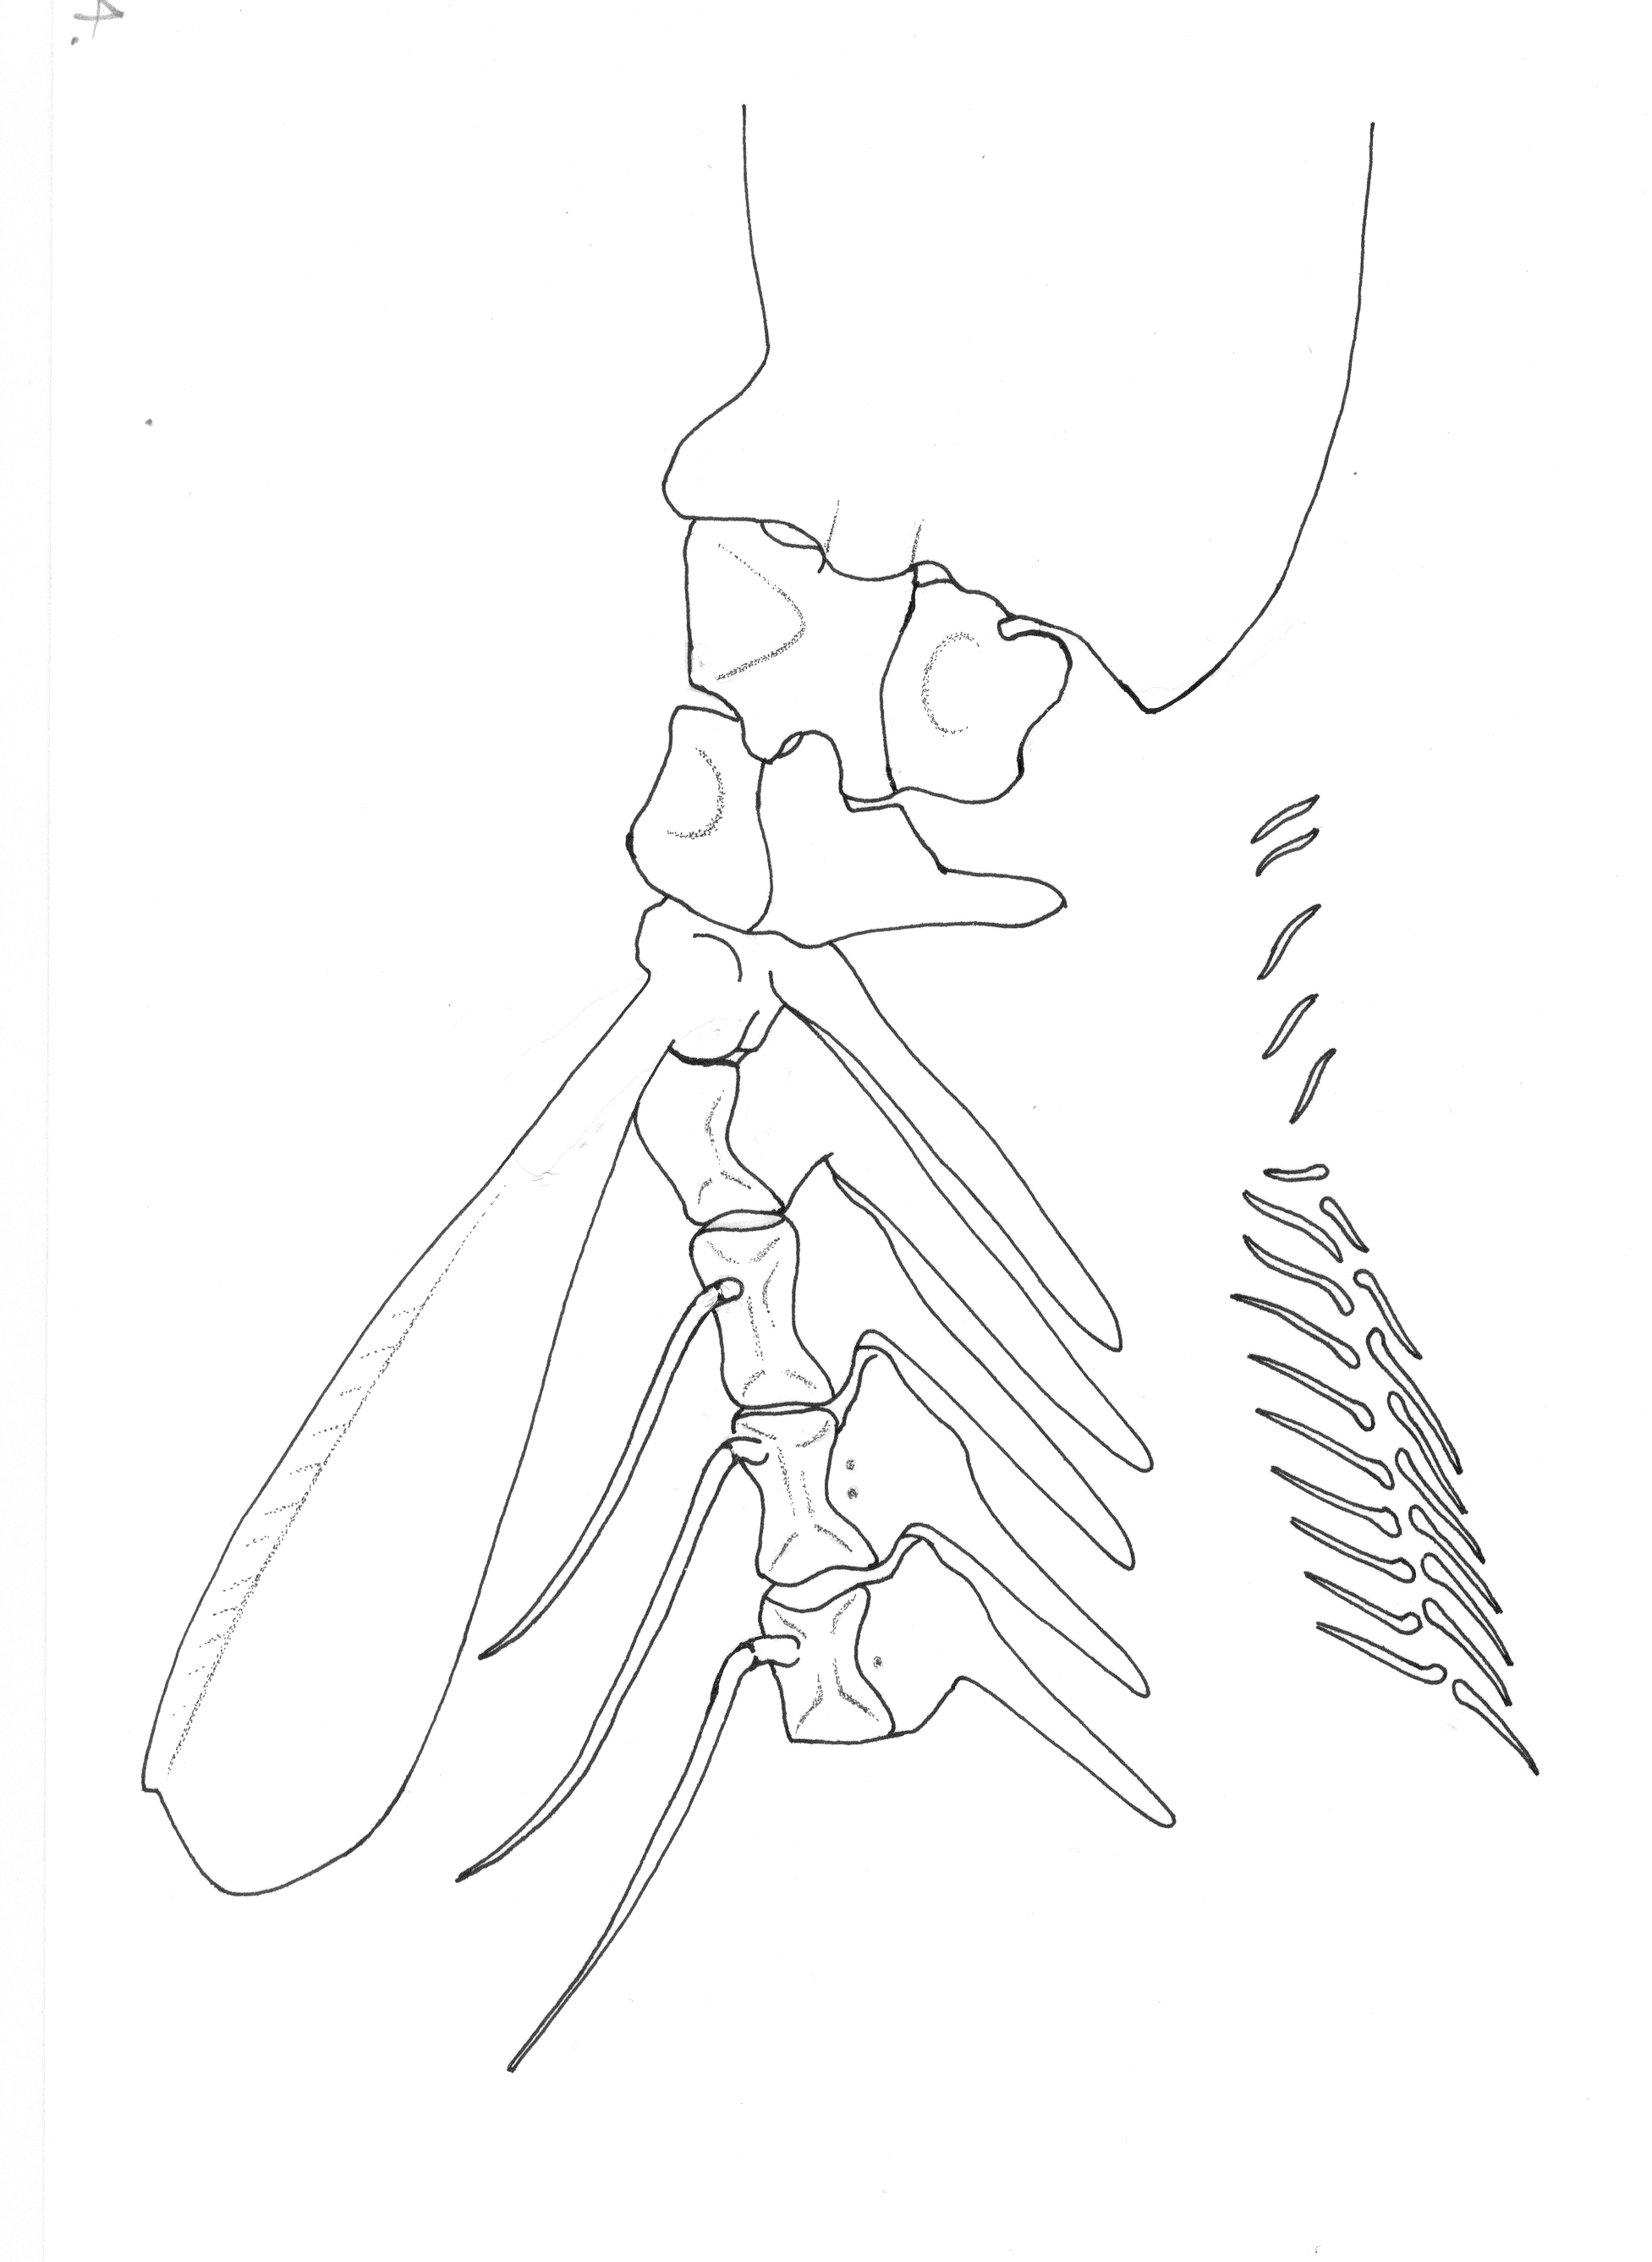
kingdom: Animalia
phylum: Chordata
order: Ophidiiformes
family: Carapidae
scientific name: Carapidae
